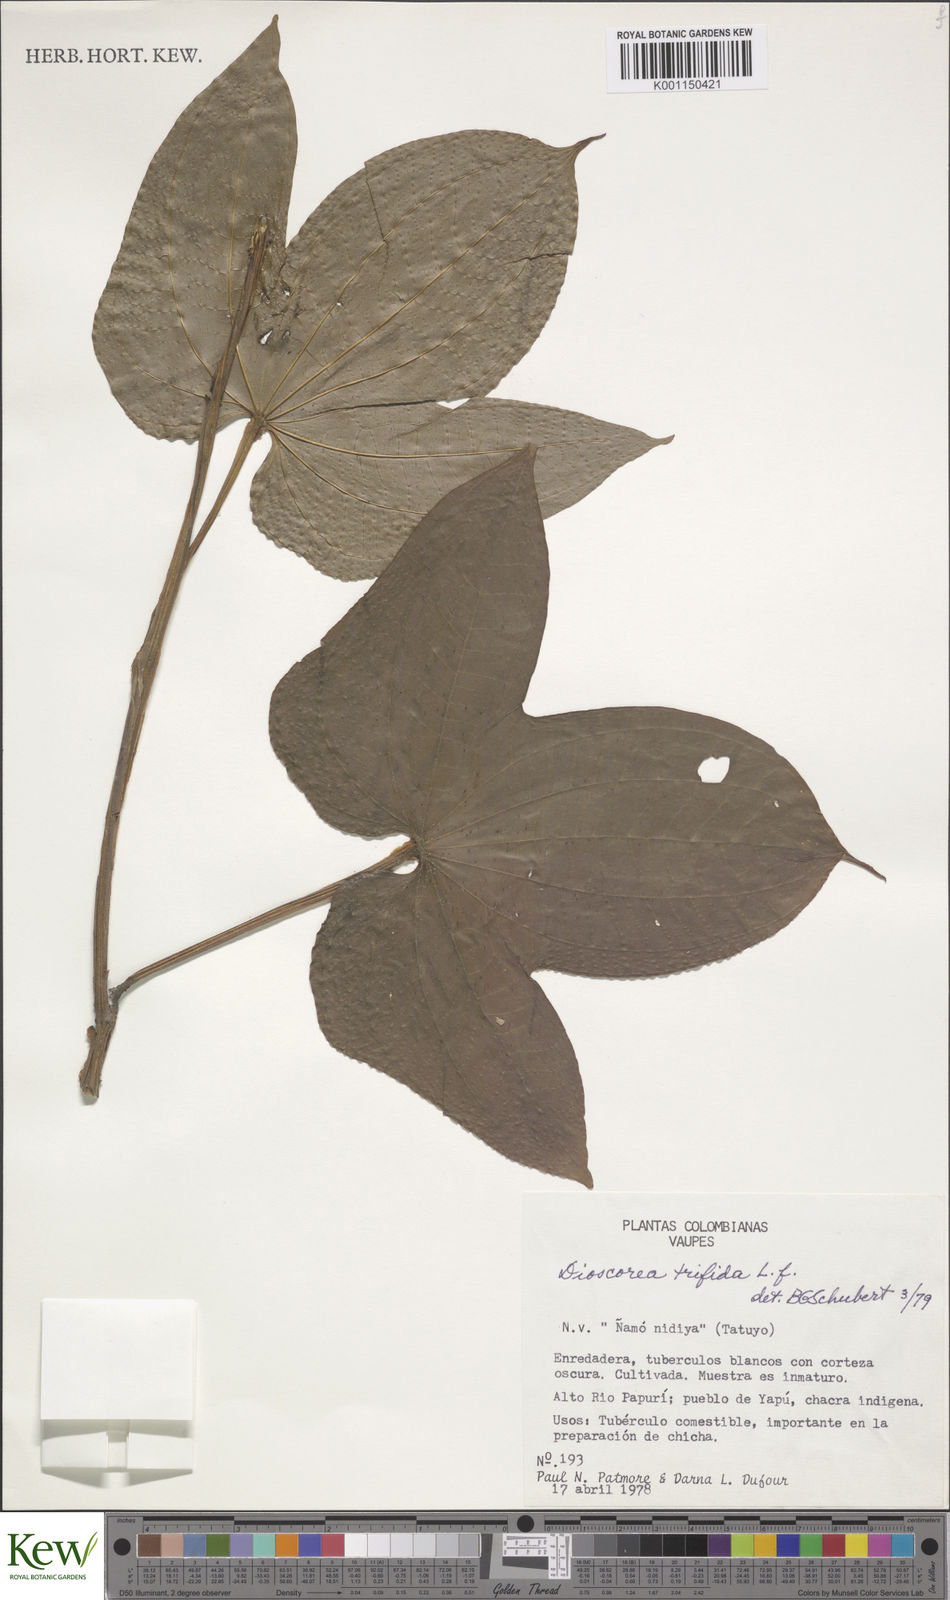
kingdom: Plantae
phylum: Tracheophyta
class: Liliopsida
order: Dioscoreales
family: Dioscoreaceae
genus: Dioscorea
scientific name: Dioscorea trifida
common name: Cush-cush
